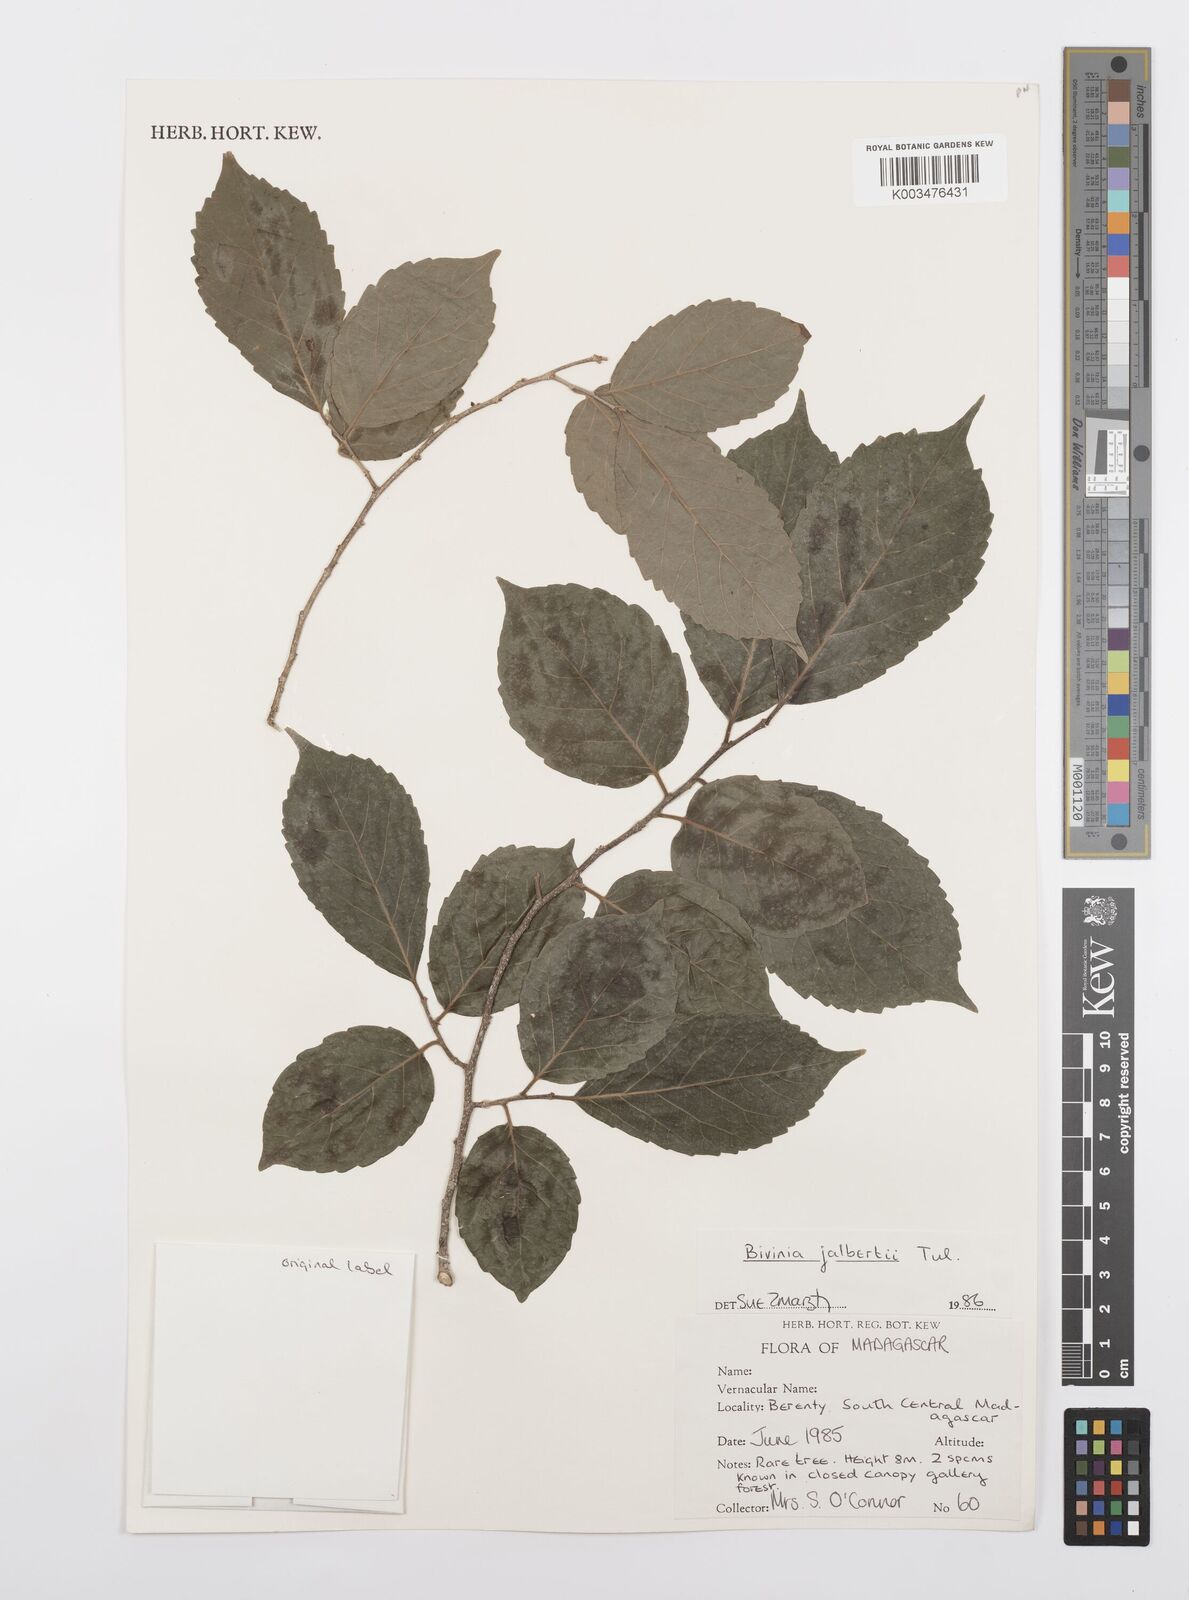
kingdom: Plantae
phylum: Tracheophyta
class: Magnoliopsida
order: Malpighiales
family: Salicaceae
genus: Bivinia
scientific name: Bivinia jalbertii
